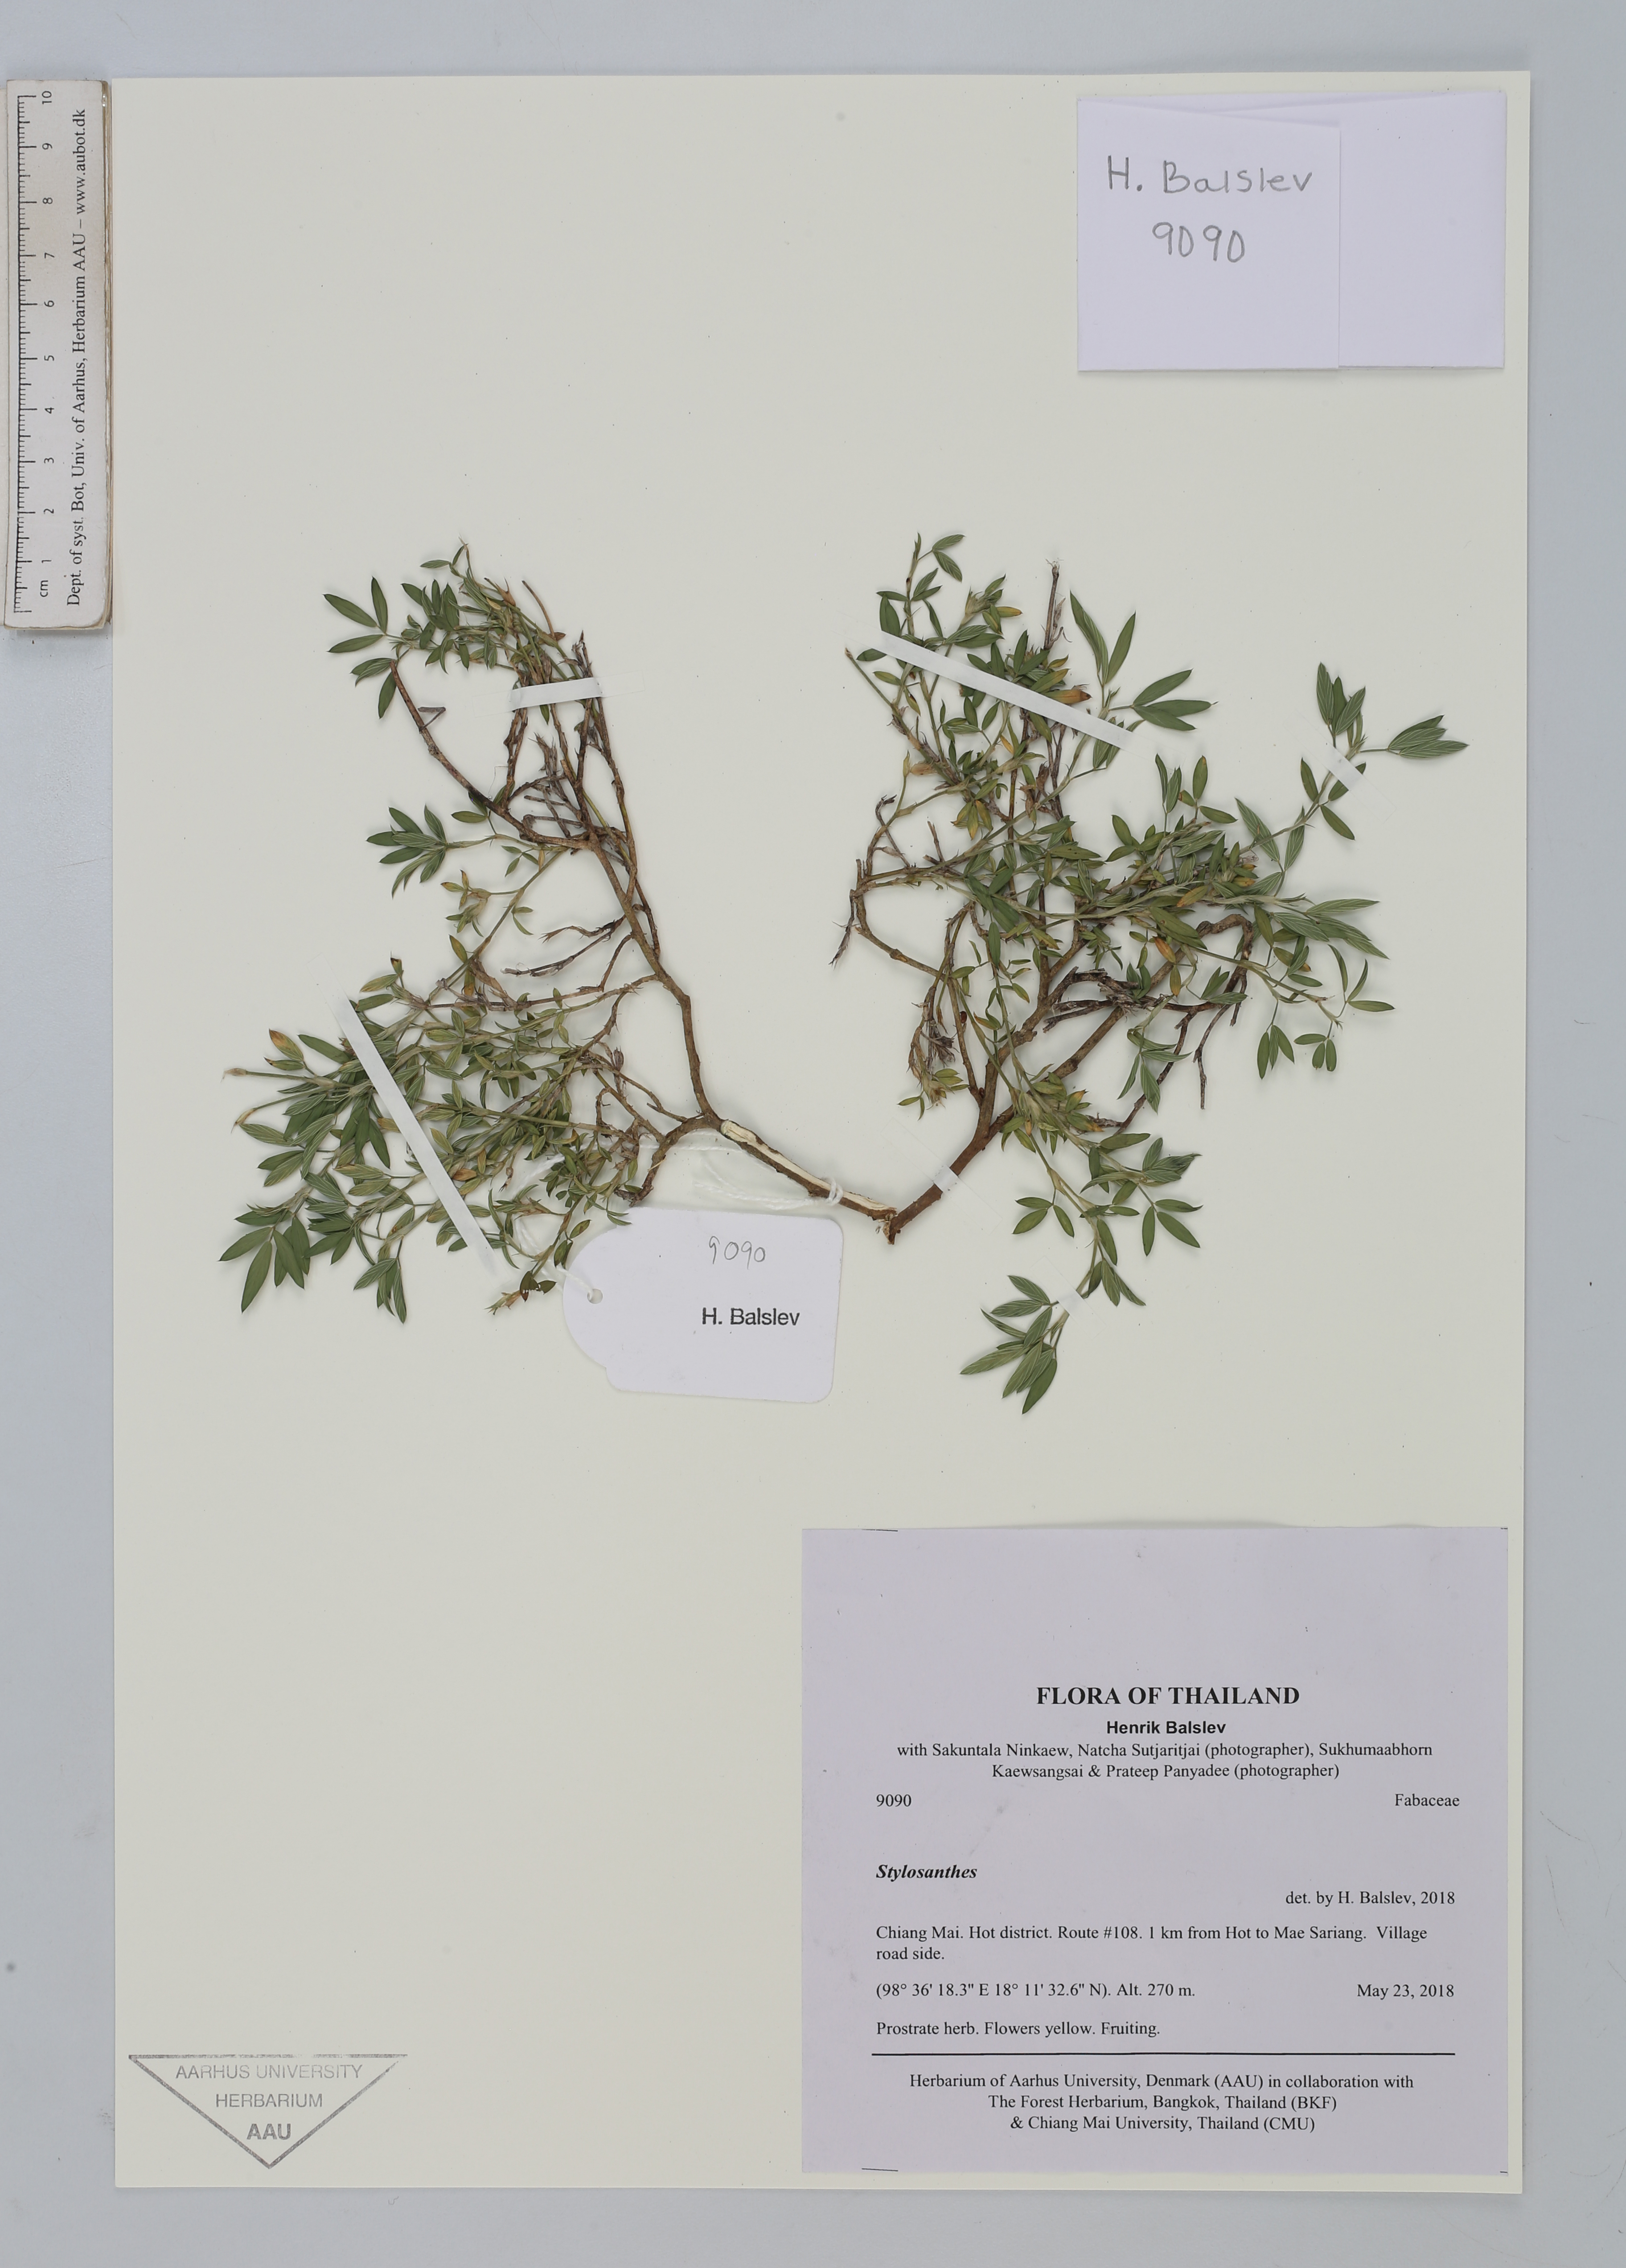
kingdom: Plantae
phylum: Tracheophyta
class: Magnoliopsida
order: Fabales
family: Fabaceae
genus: Stylosanthes
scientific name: Stylosanthes
